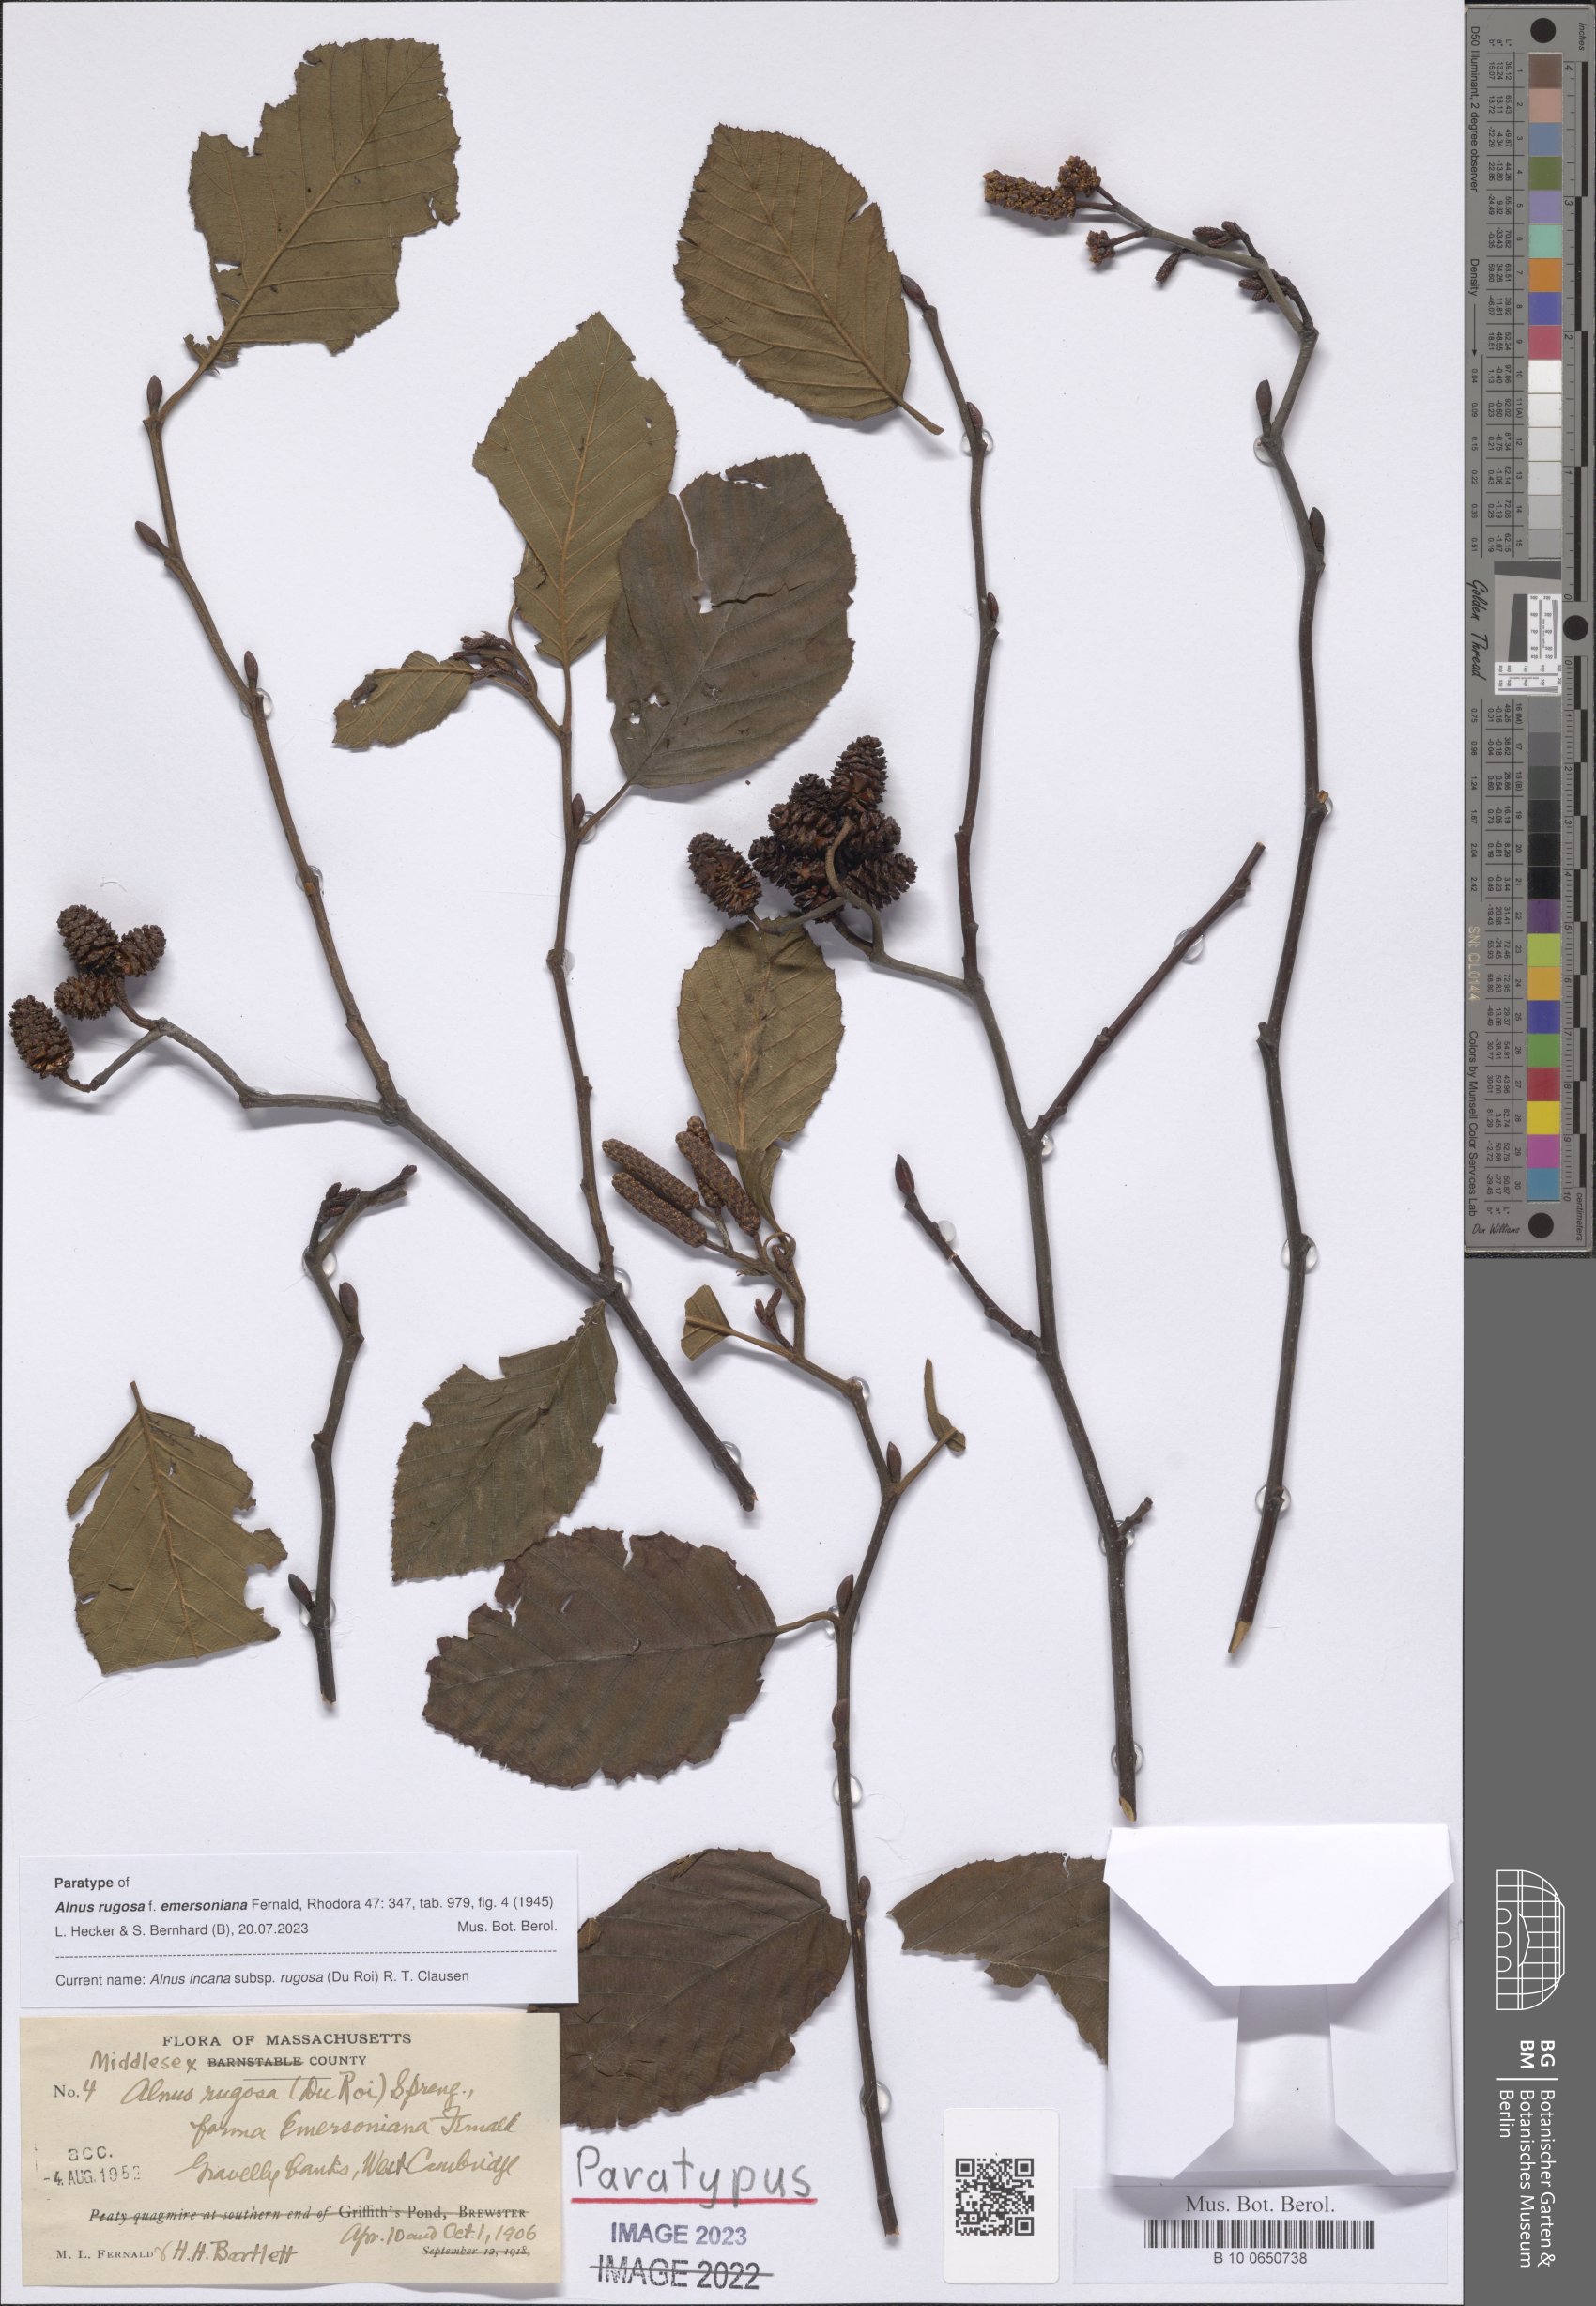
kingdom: Plantae
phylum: Tracheophyta
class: Magnoliopsida
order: Fagales
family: Betulaceae
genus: Alnus
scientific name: Alnus incana
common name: Grey alder
